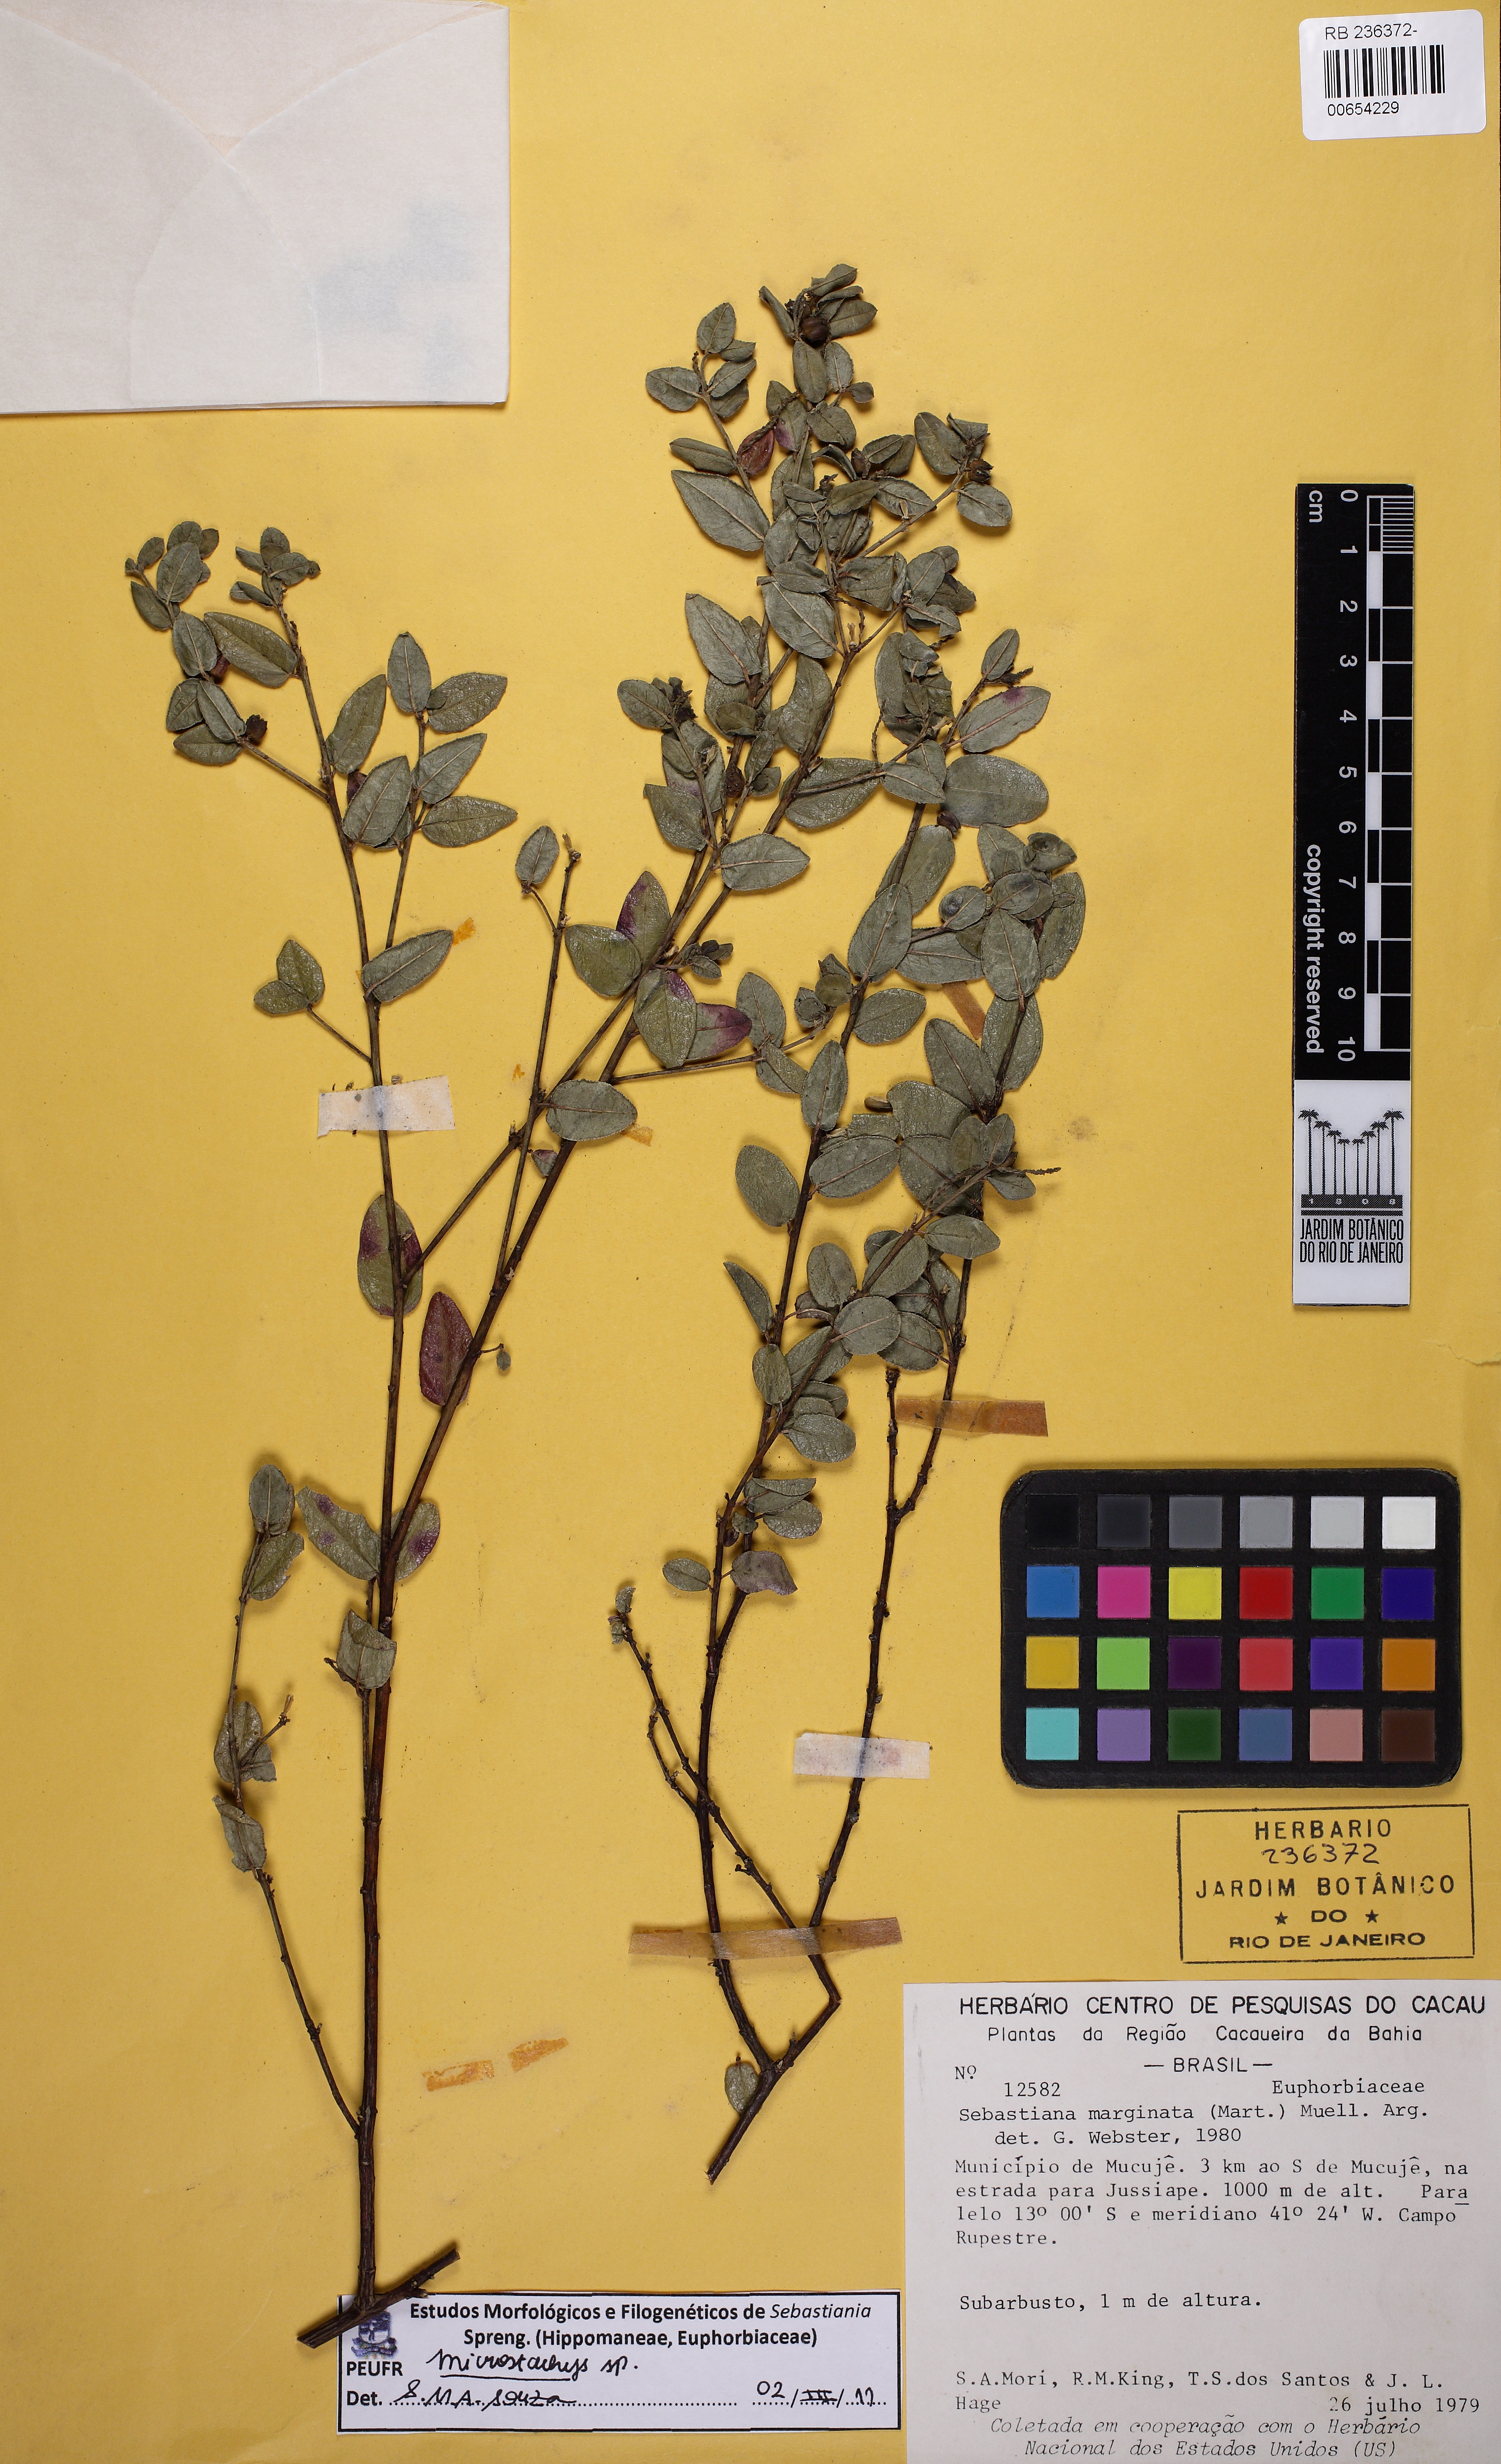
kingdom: Plantae
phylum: Tracheophyta
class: Magnoliopsida
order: Malpighiales
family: Euphorbiaceae
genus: Microstachys
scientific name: Microstachys serrulata
